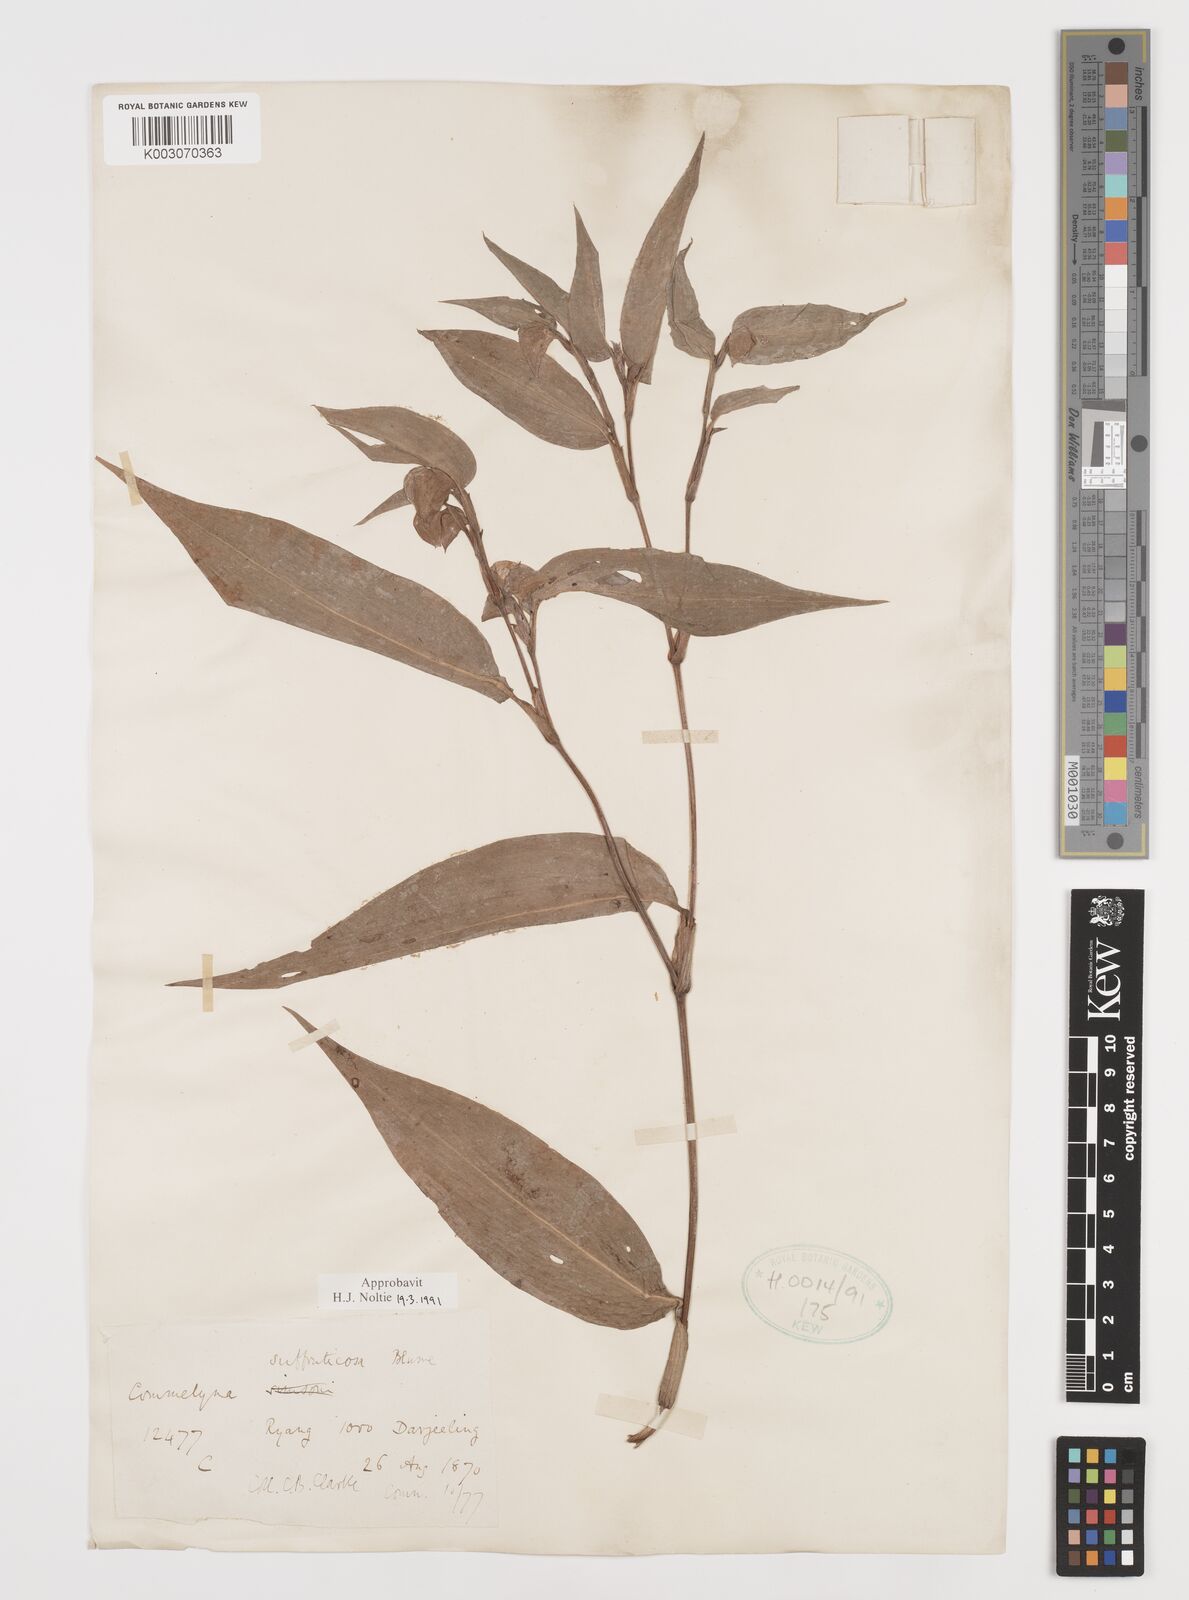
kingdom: Plantae
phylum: Tracheophyta
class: Liliopsida
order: Commelinales
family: Commelinaceae
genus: Commelina
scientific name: Commelina suffruticosa
